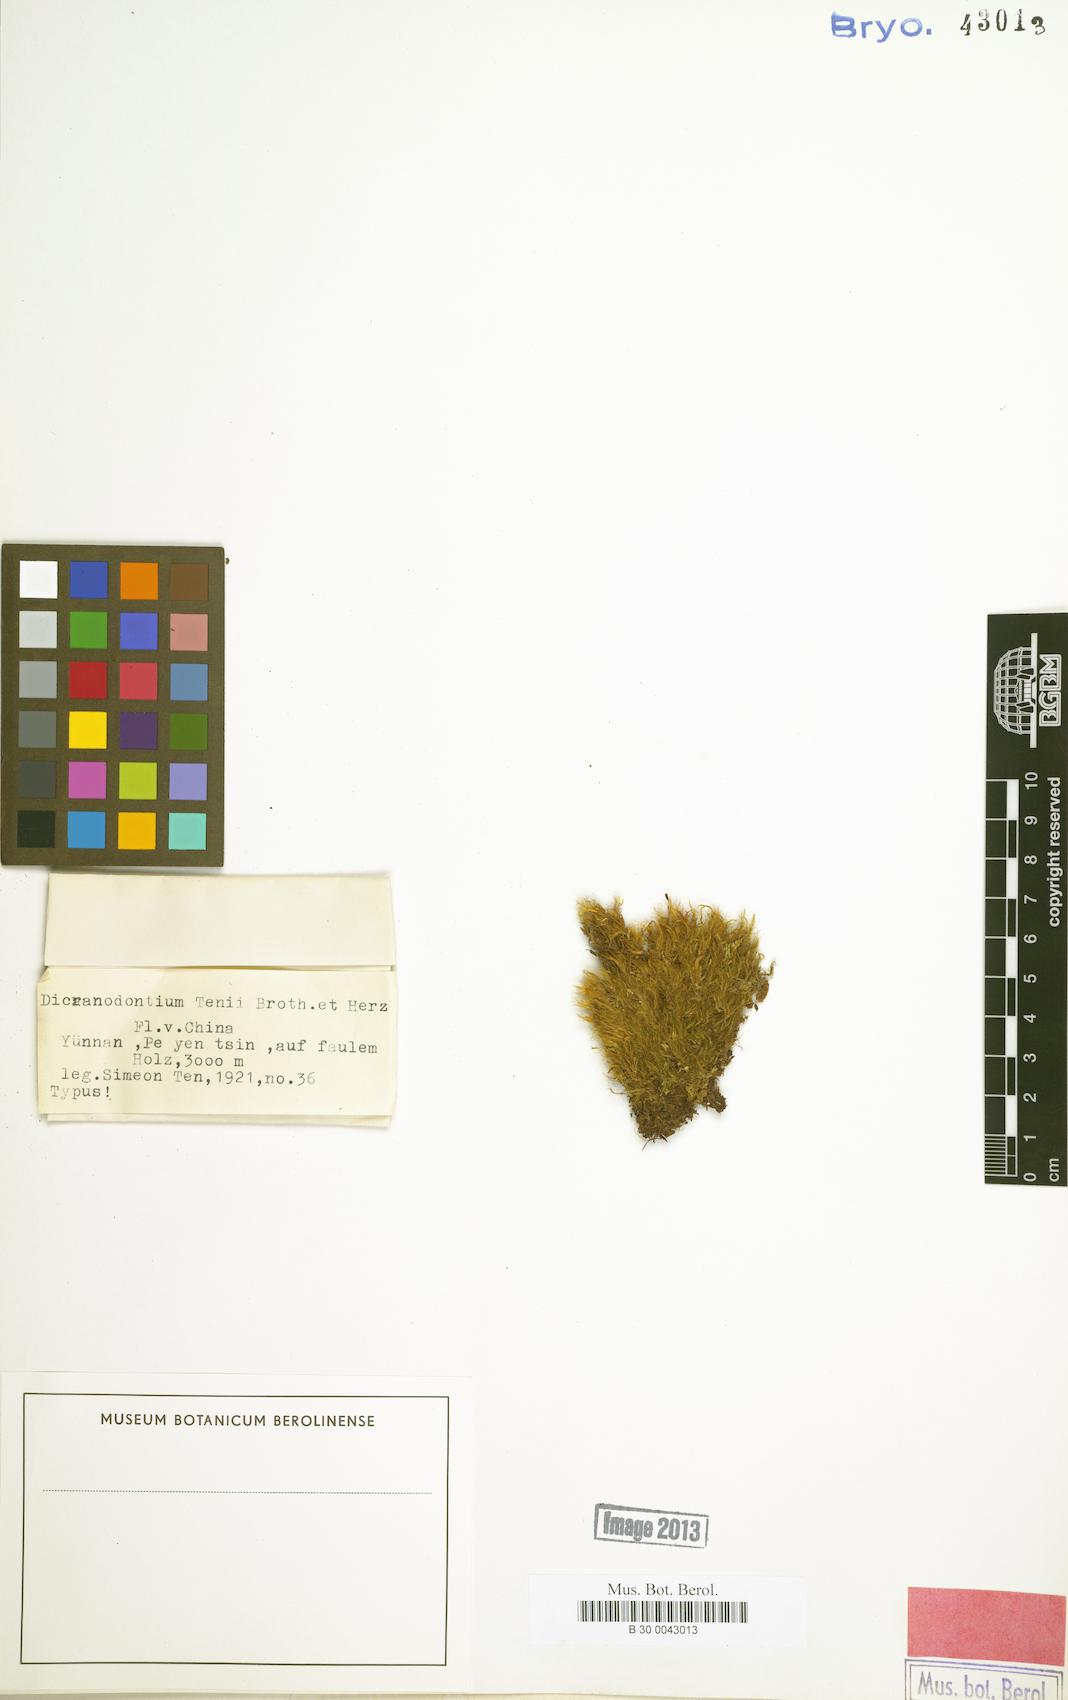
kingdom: Plantae
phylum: Bryophyta
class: Bryopsida
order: Dicranales
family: Dicranaceae
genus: Dicranum
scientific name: Dicranum hamulosum
